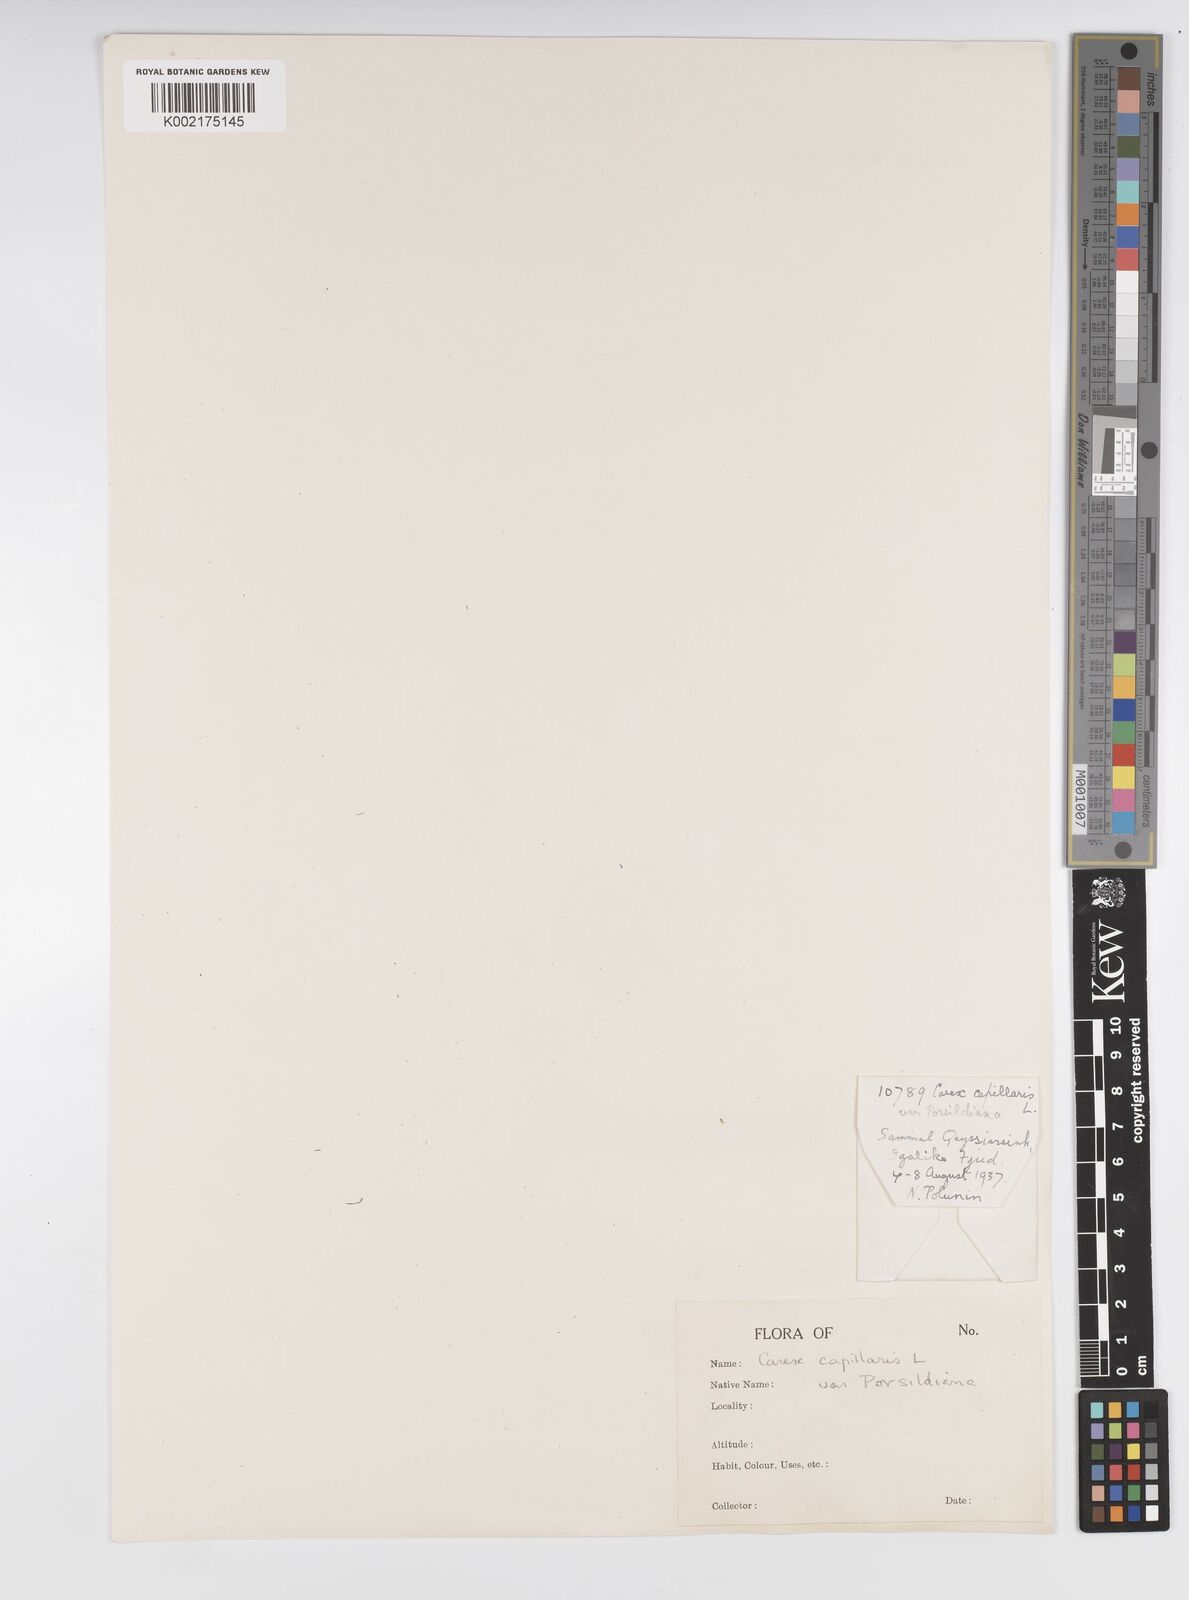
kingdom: Plantae
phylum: Tracheophyta
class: Liliopsida
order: Poales
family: Cyperaceae
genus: Carex
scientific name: Carex krausei
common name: Krause's sedge
